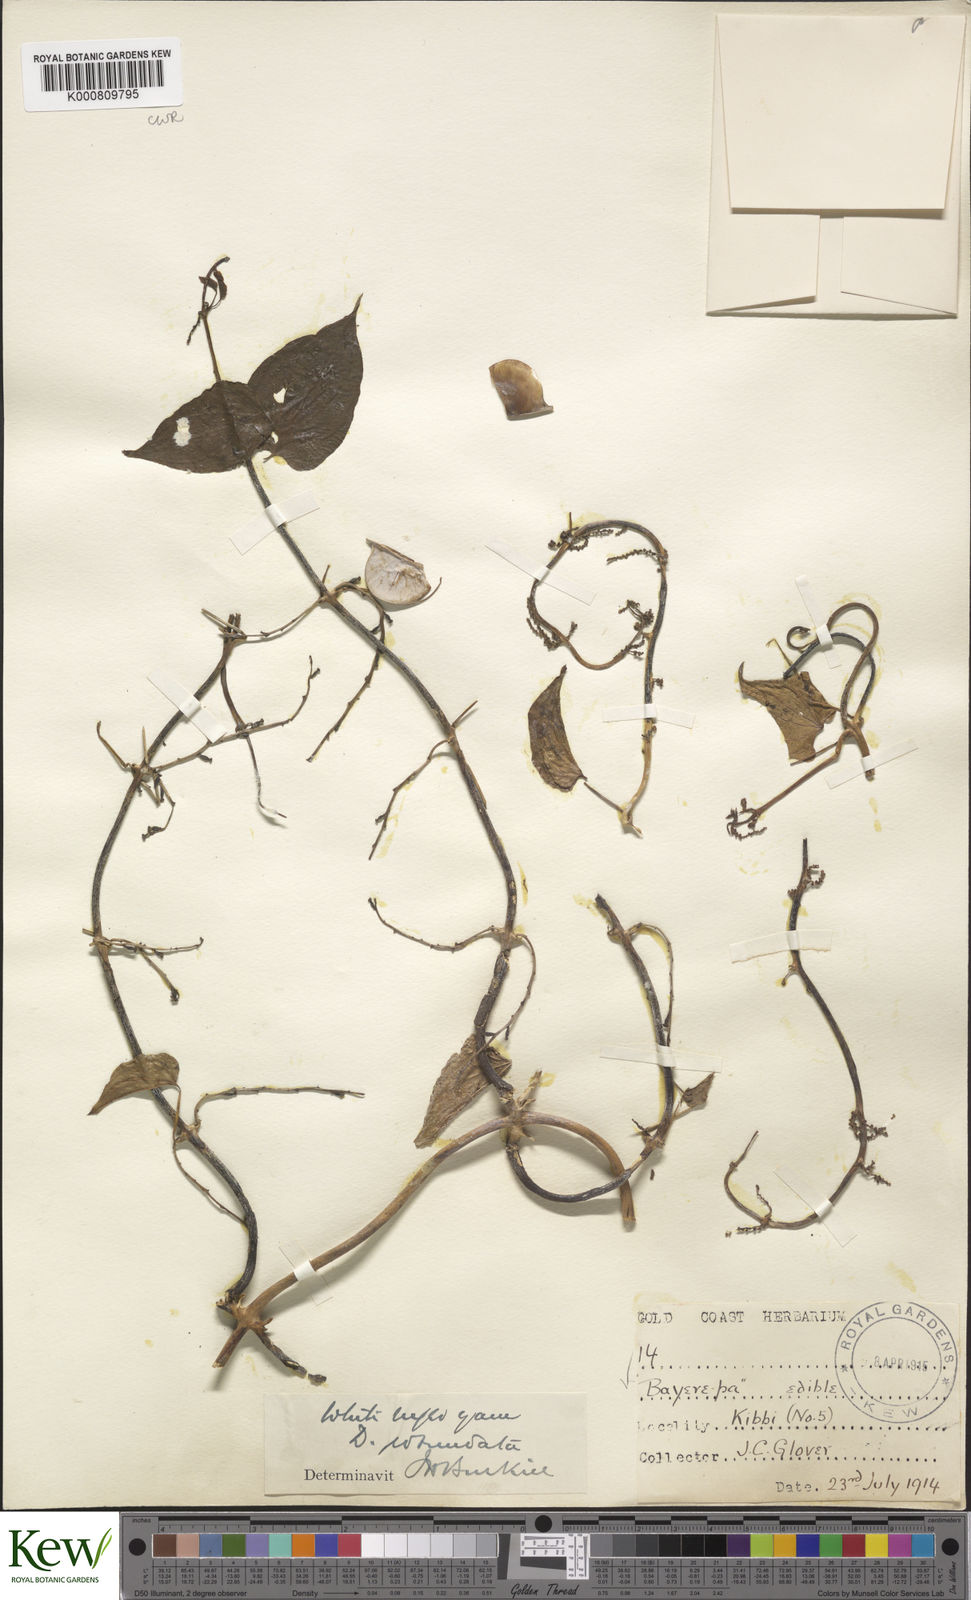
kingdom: Plantae
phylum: Tracheophyta
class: Liliopsida
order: Dioscoreales
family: Dioscoreaceae
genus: Dioscorea
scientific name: Dioscorea cayenensis
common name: Attoto yam
